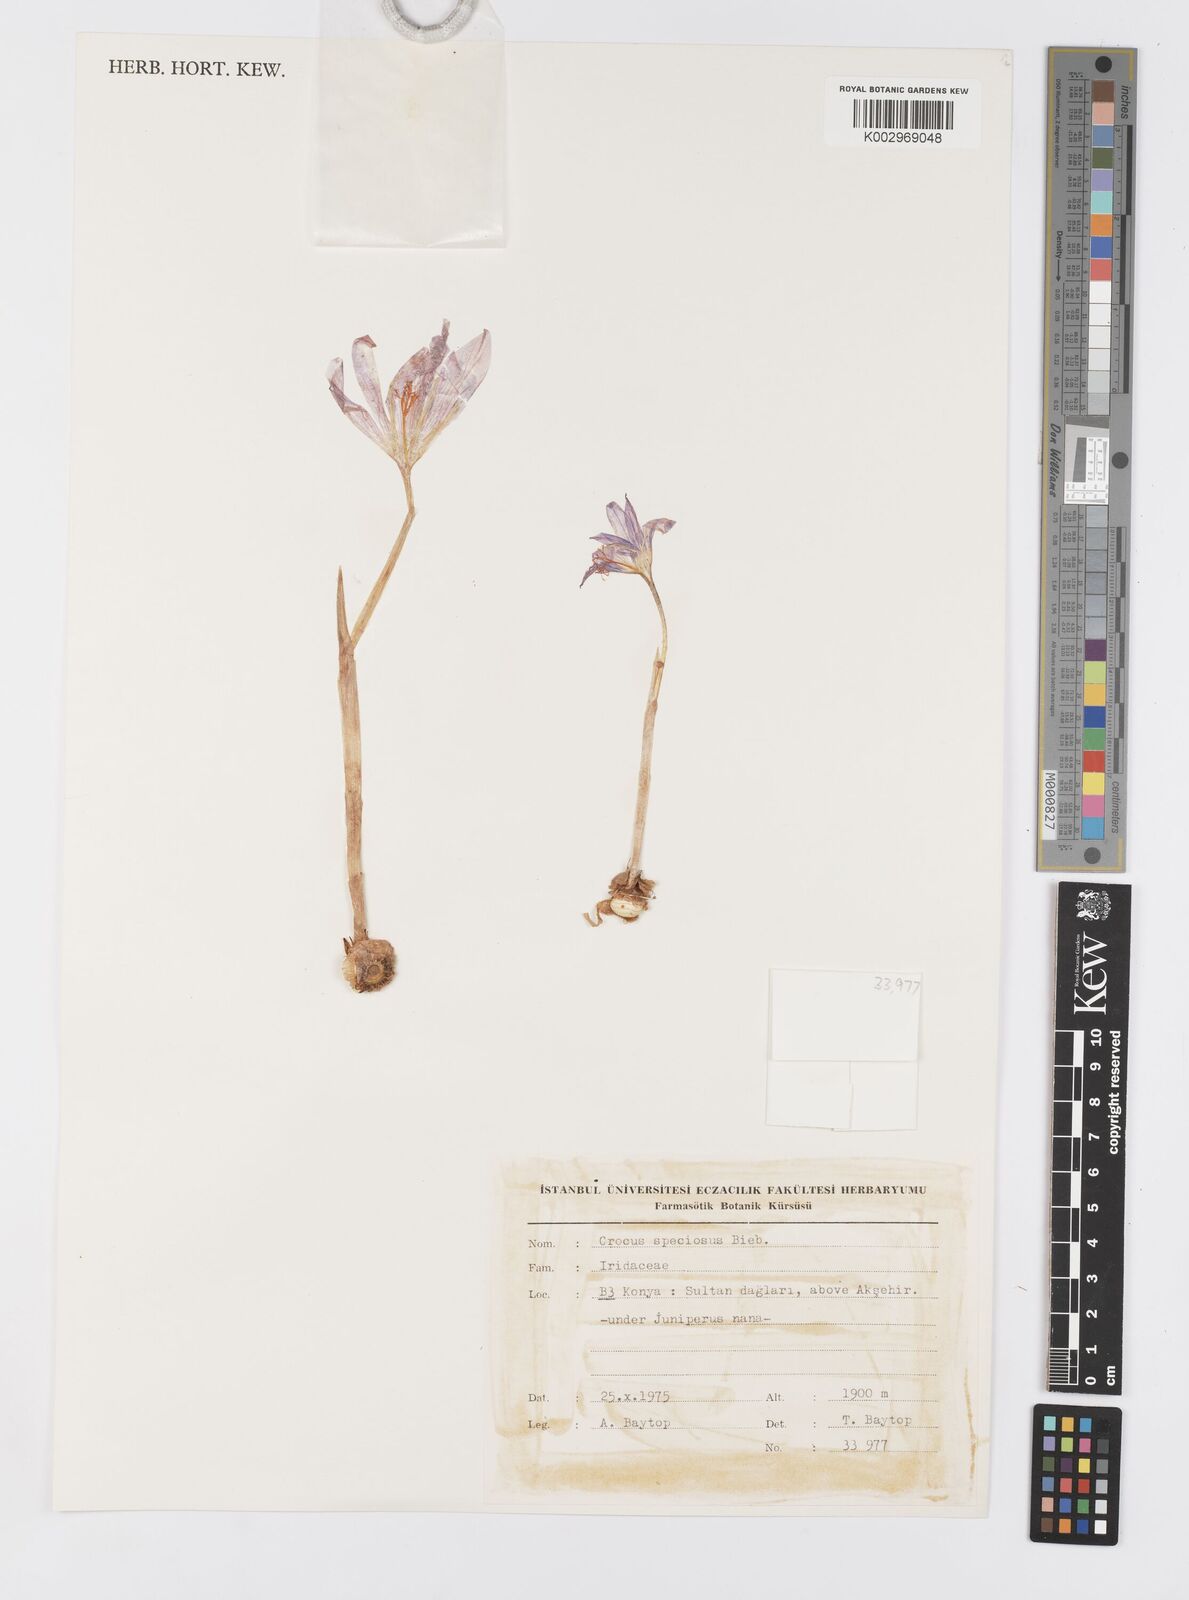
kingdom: Plantae
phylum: Tracheophyta
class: Liliopsida
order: Asparagales
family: Iridaceae
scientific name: Iridaceae
